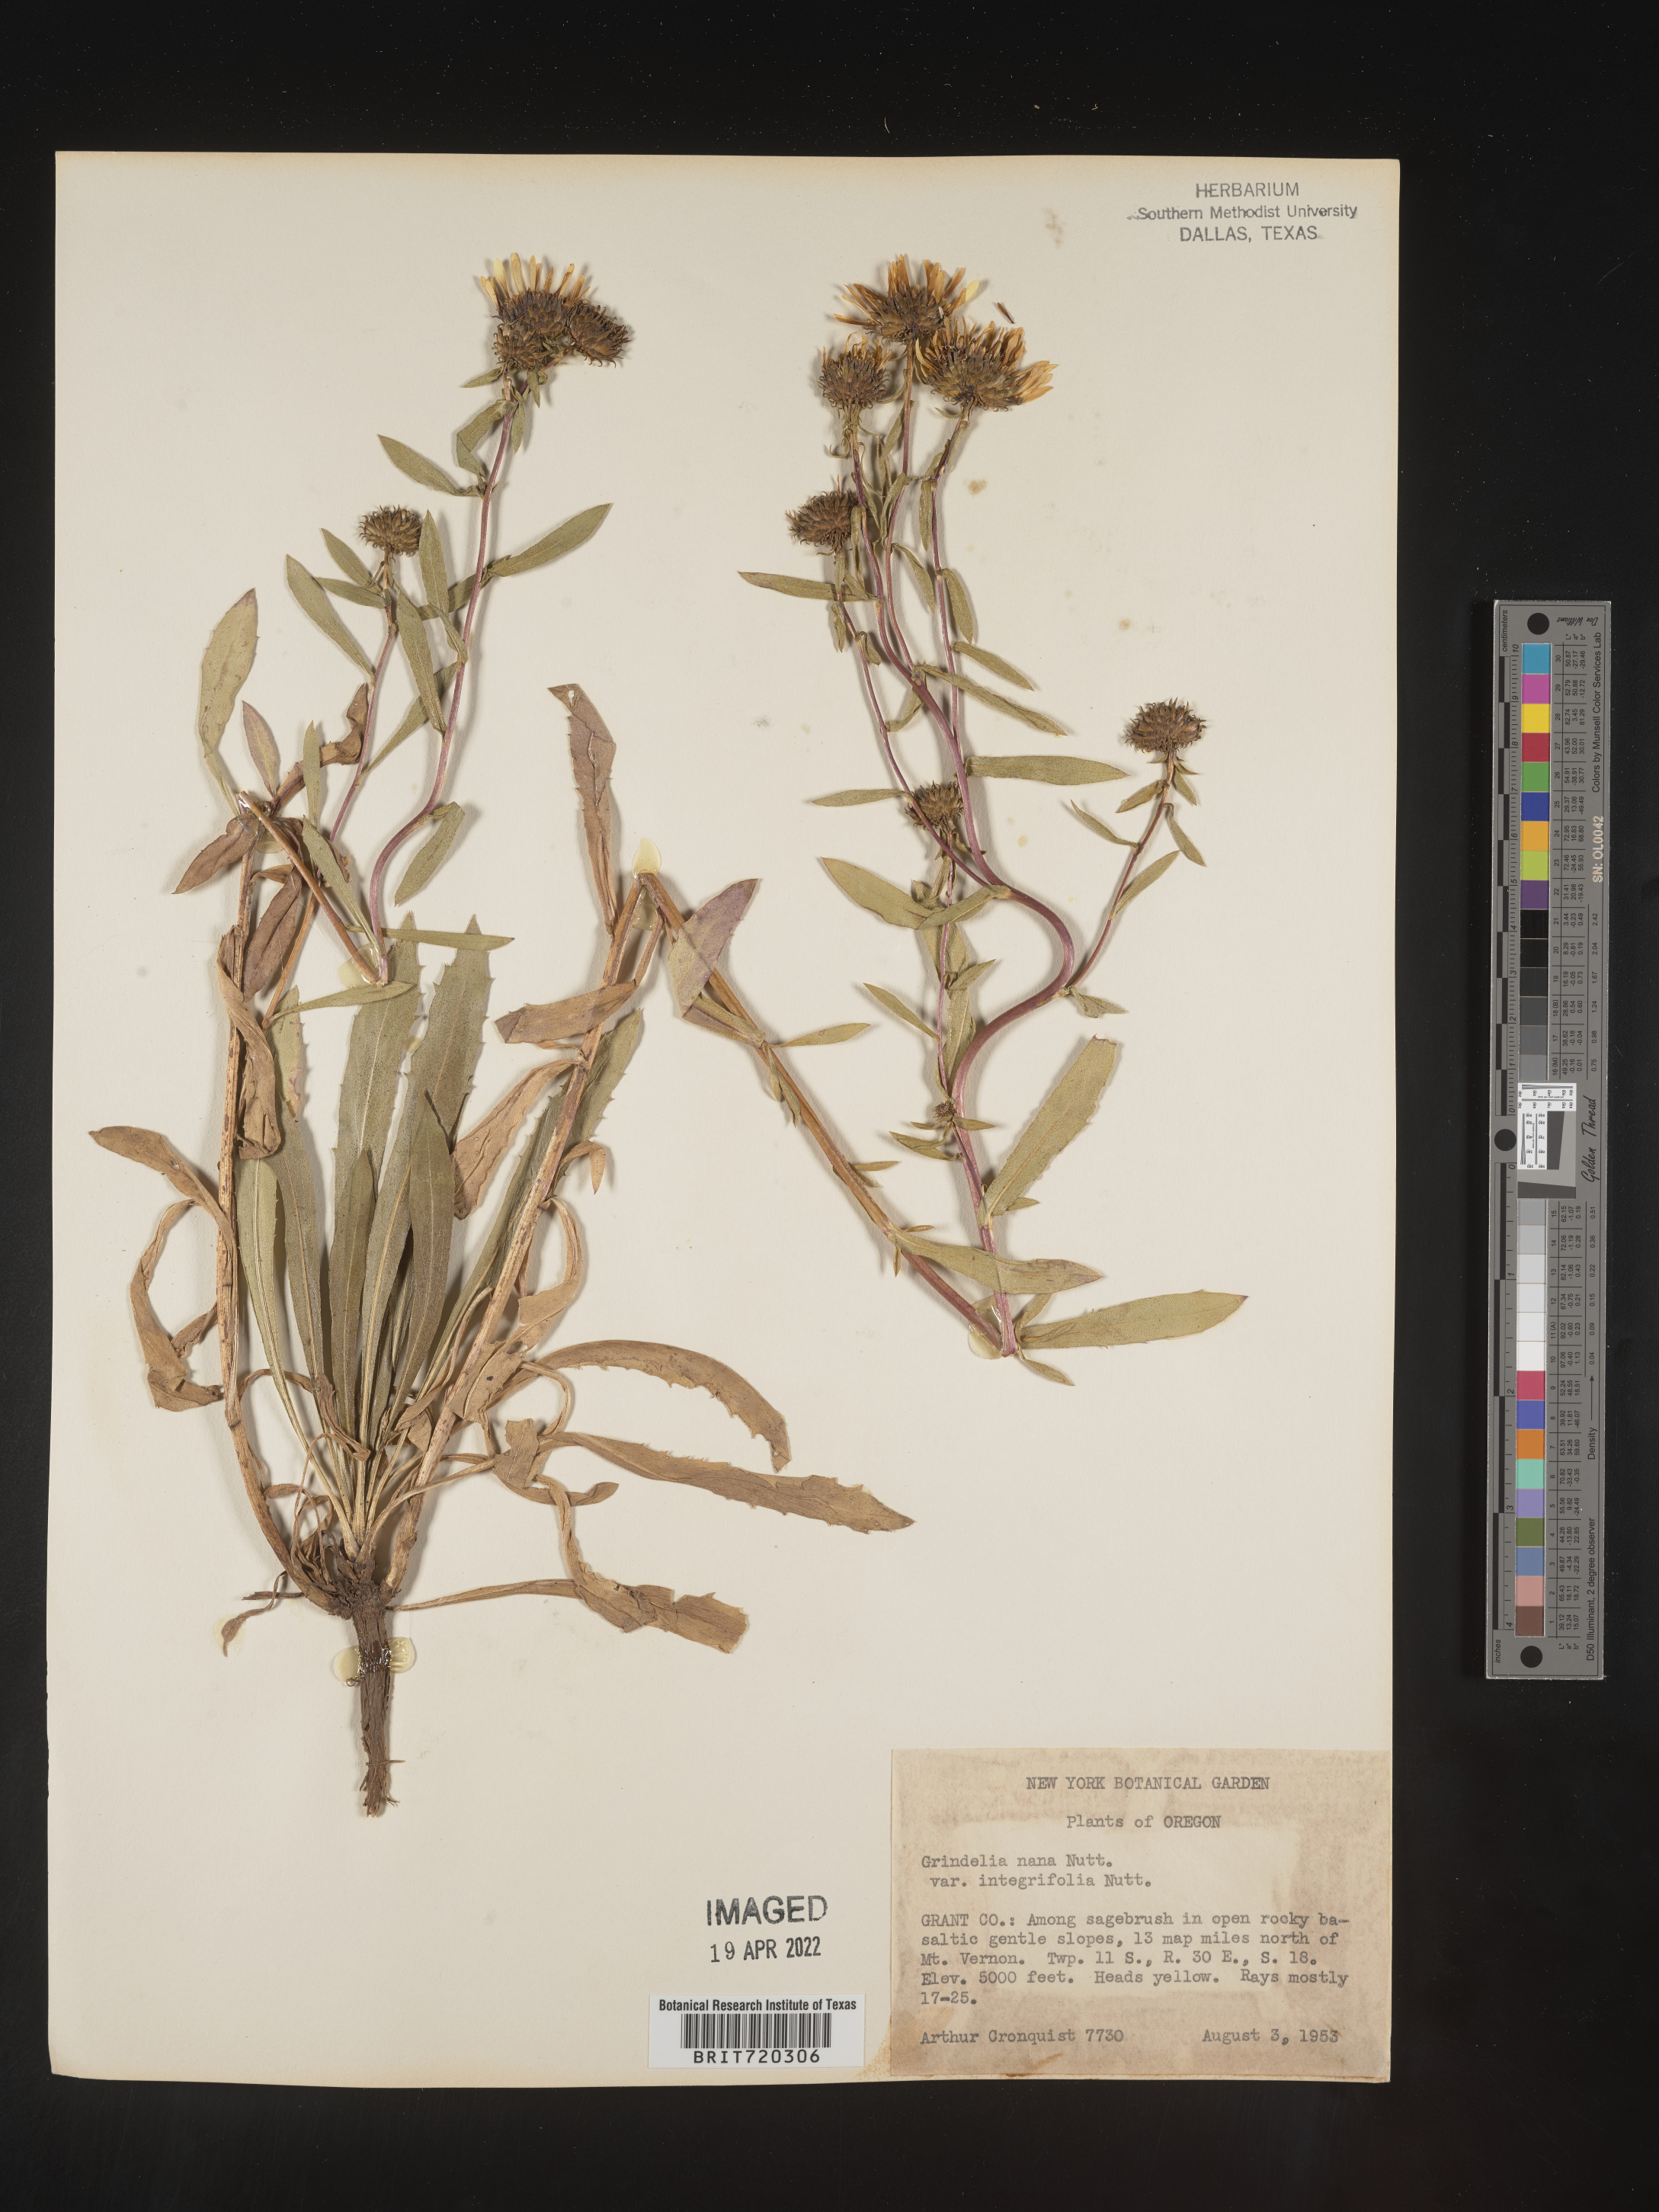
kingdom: Plantae
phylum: Tracheophyta
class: Magnoliopsida
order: Asterales
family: Asteraceae
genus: Grindelia
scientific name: Grindelia hirsutula
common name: Hairy gumweed
